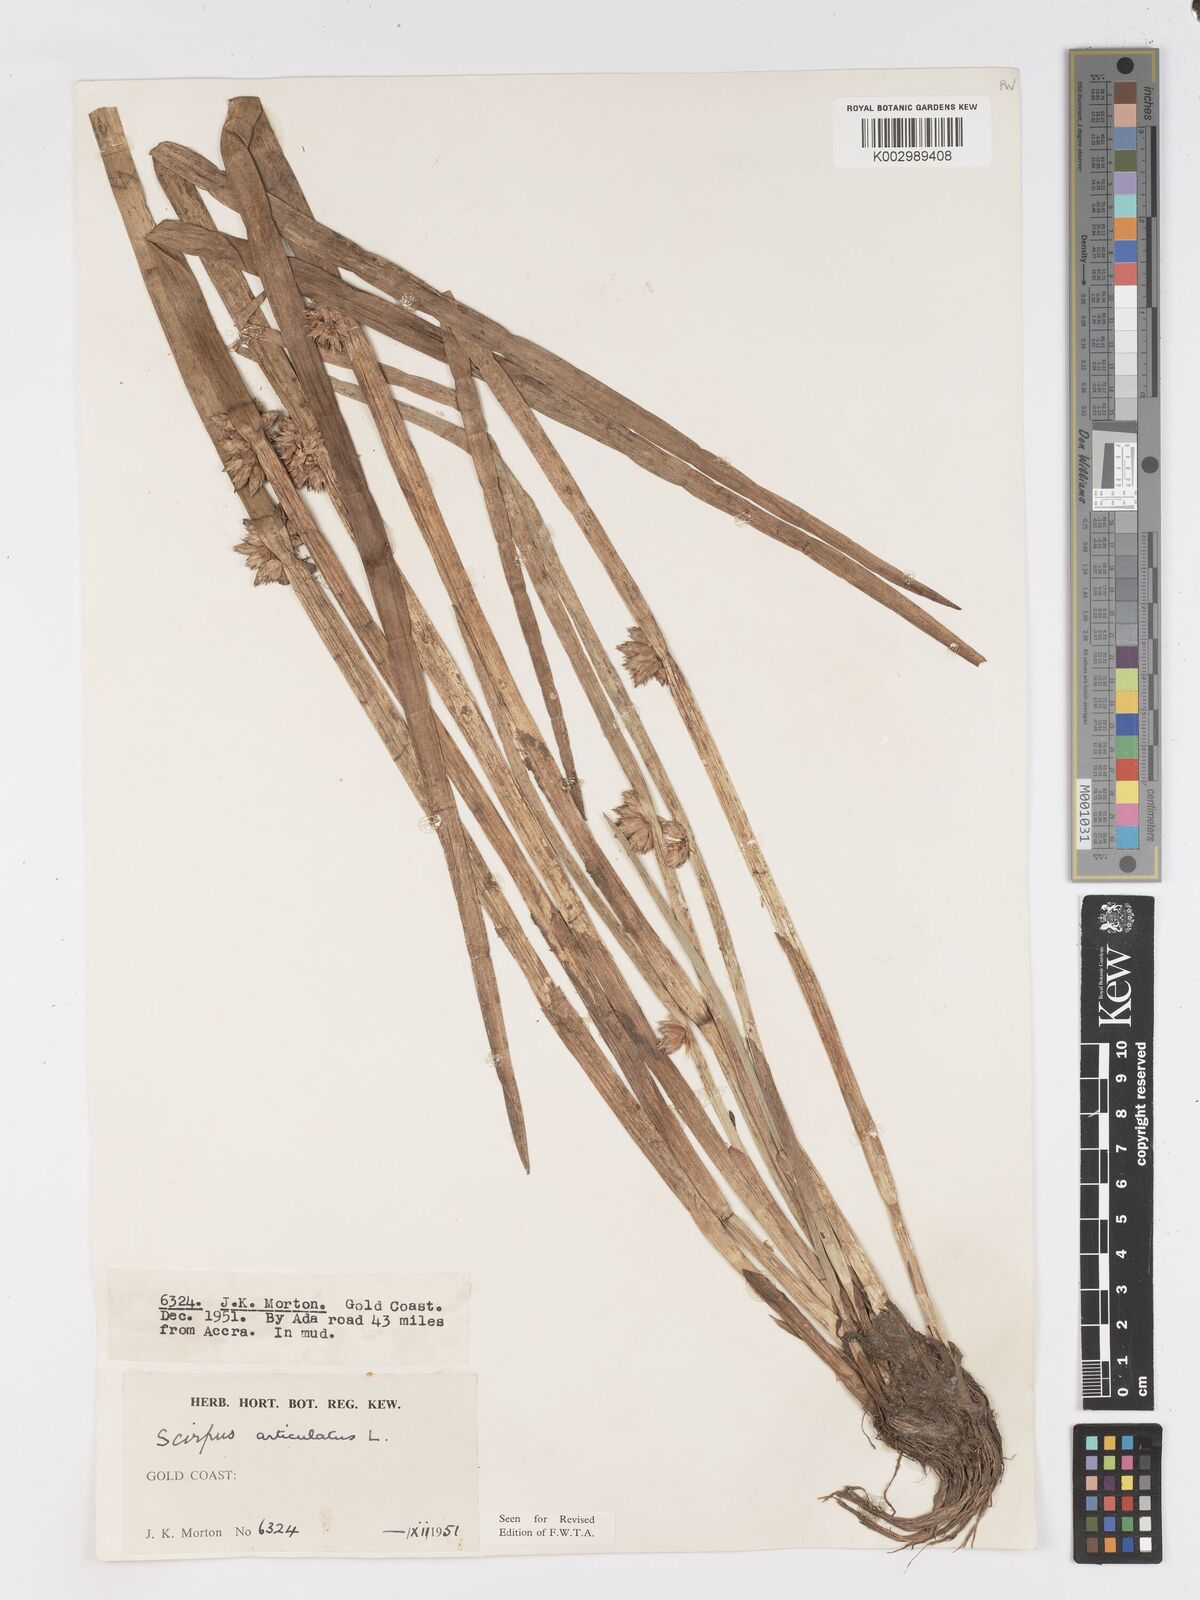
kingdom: Plantae
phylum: Tracheophyta
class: Liliopsida
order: Poales
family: Cyperaceae
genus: Schoenoplectiella
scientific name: Schoenoplectiella articulata
